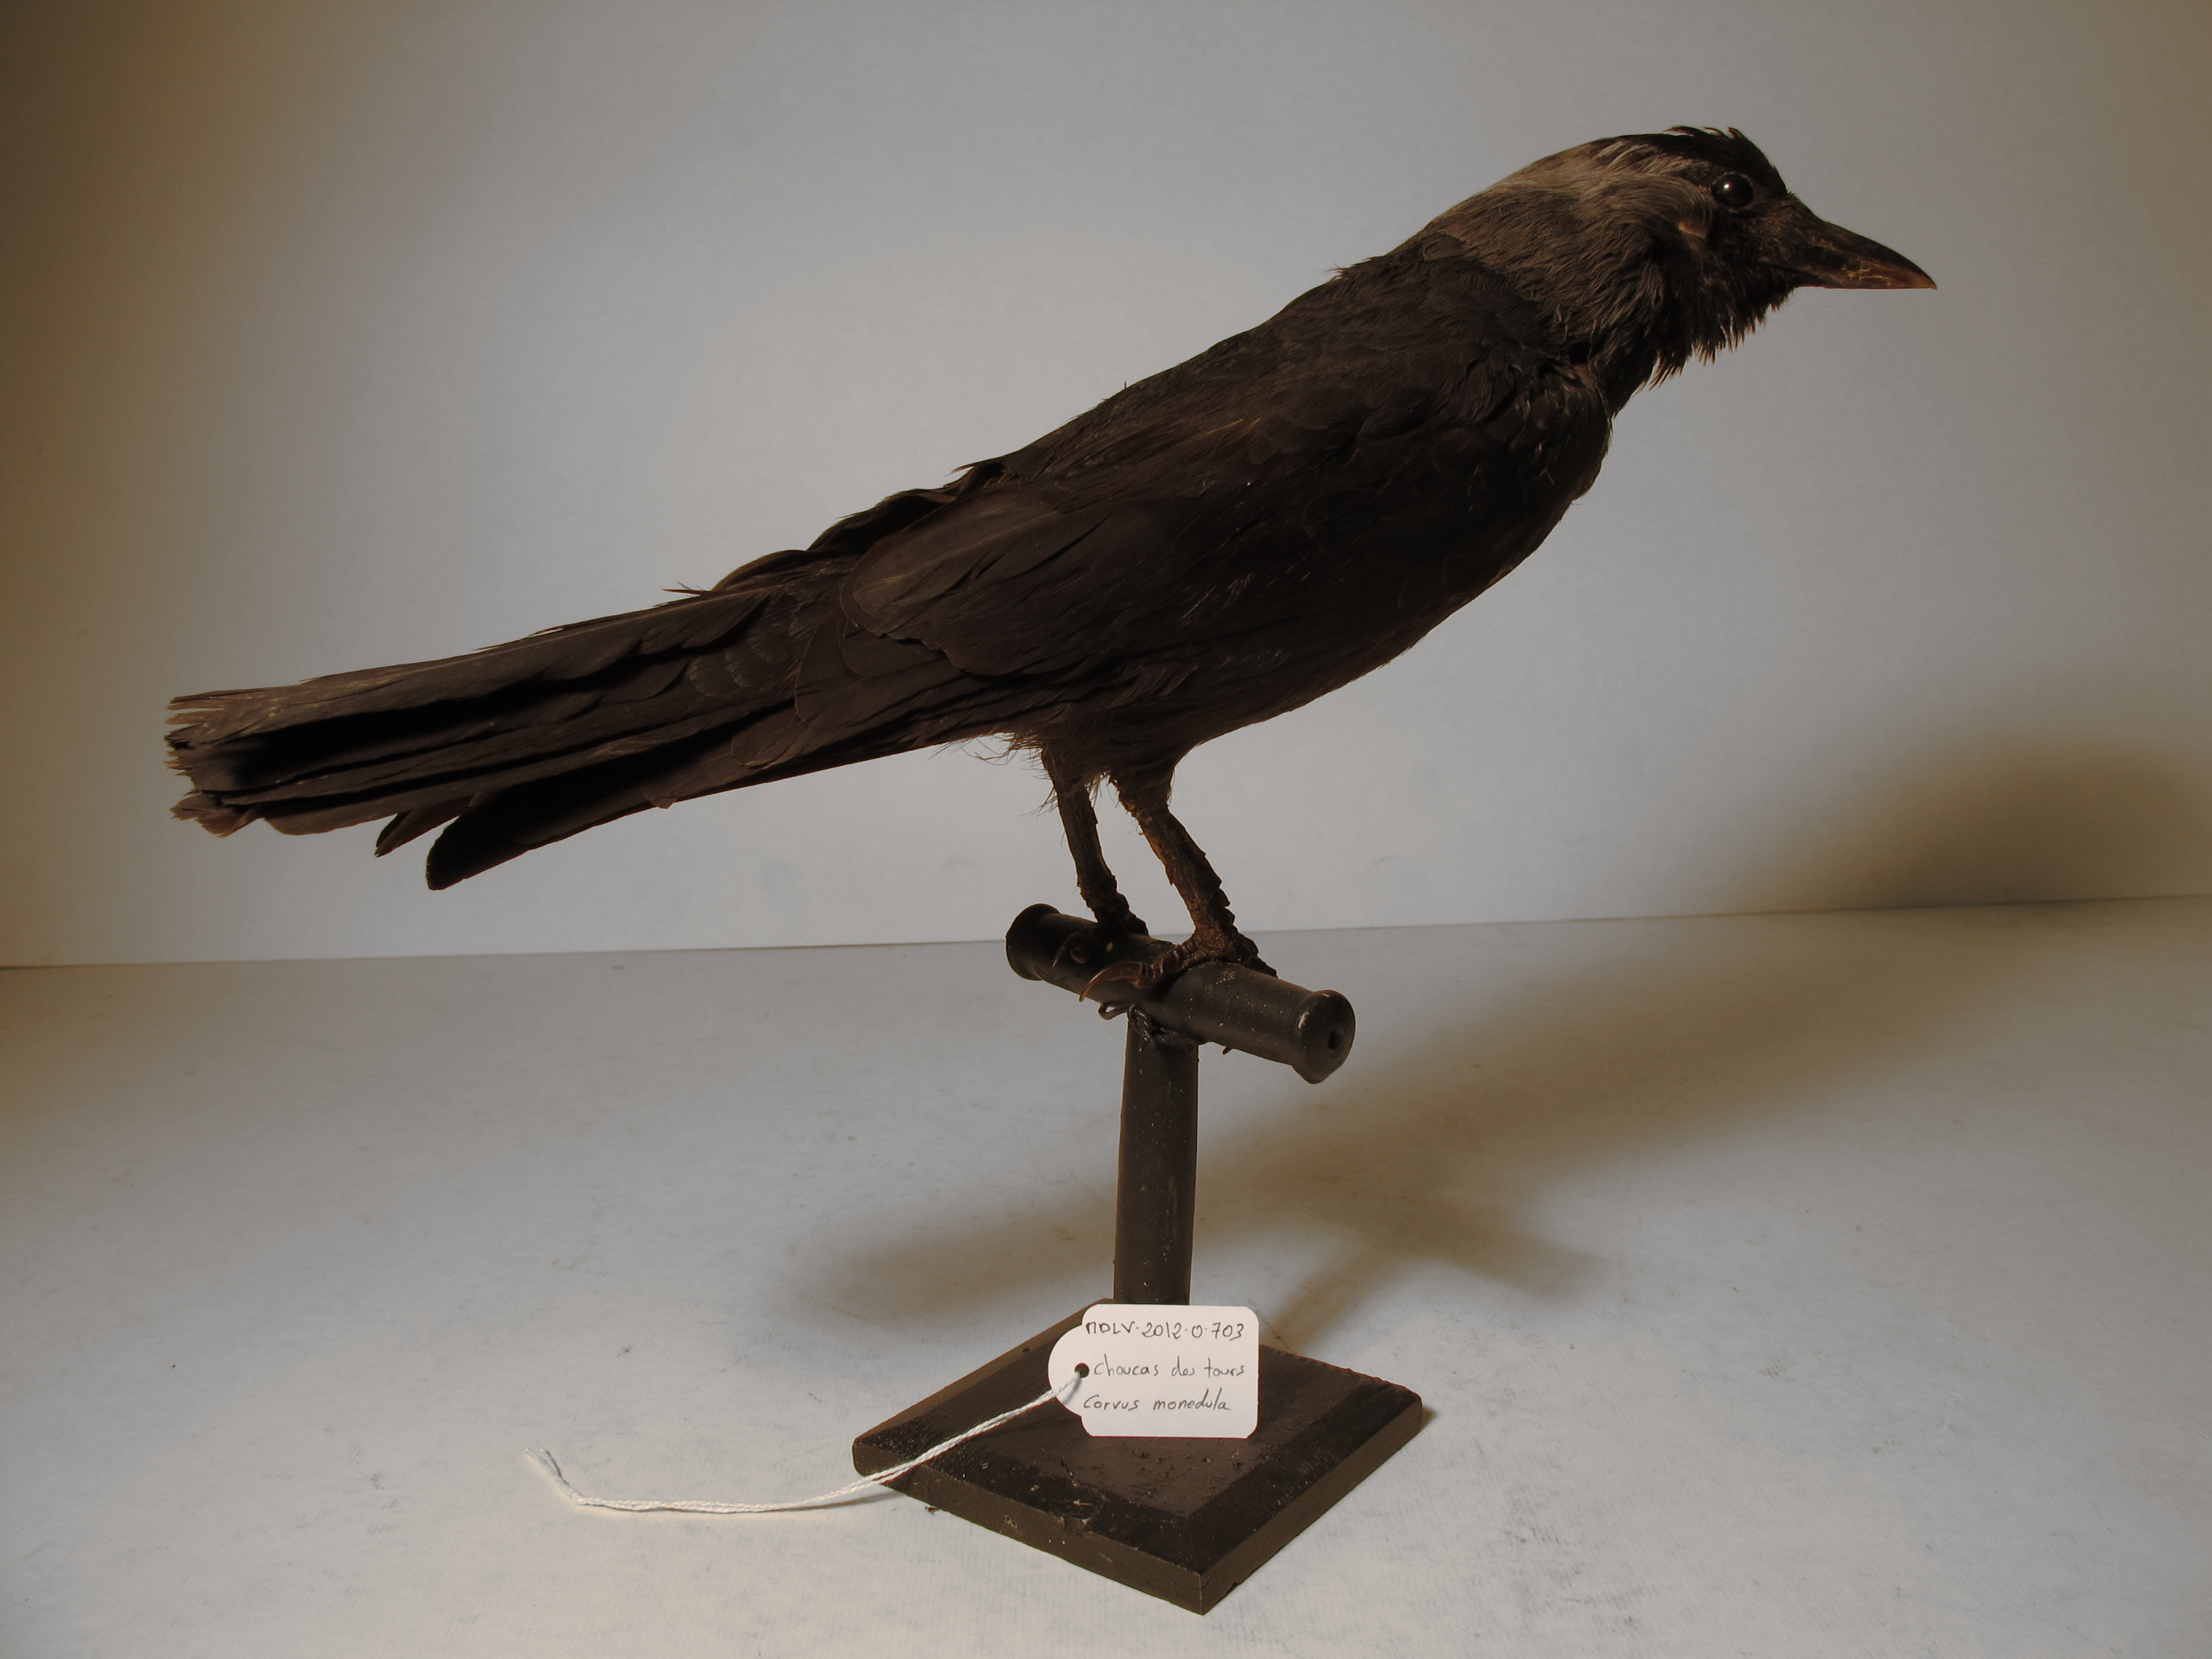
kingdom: Animalia
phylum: Chordata
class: Aves
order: Passeriformes
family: Corvidae
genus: Coloeus
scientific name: Coloeus monedula
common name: Eurasian Jackdaw
